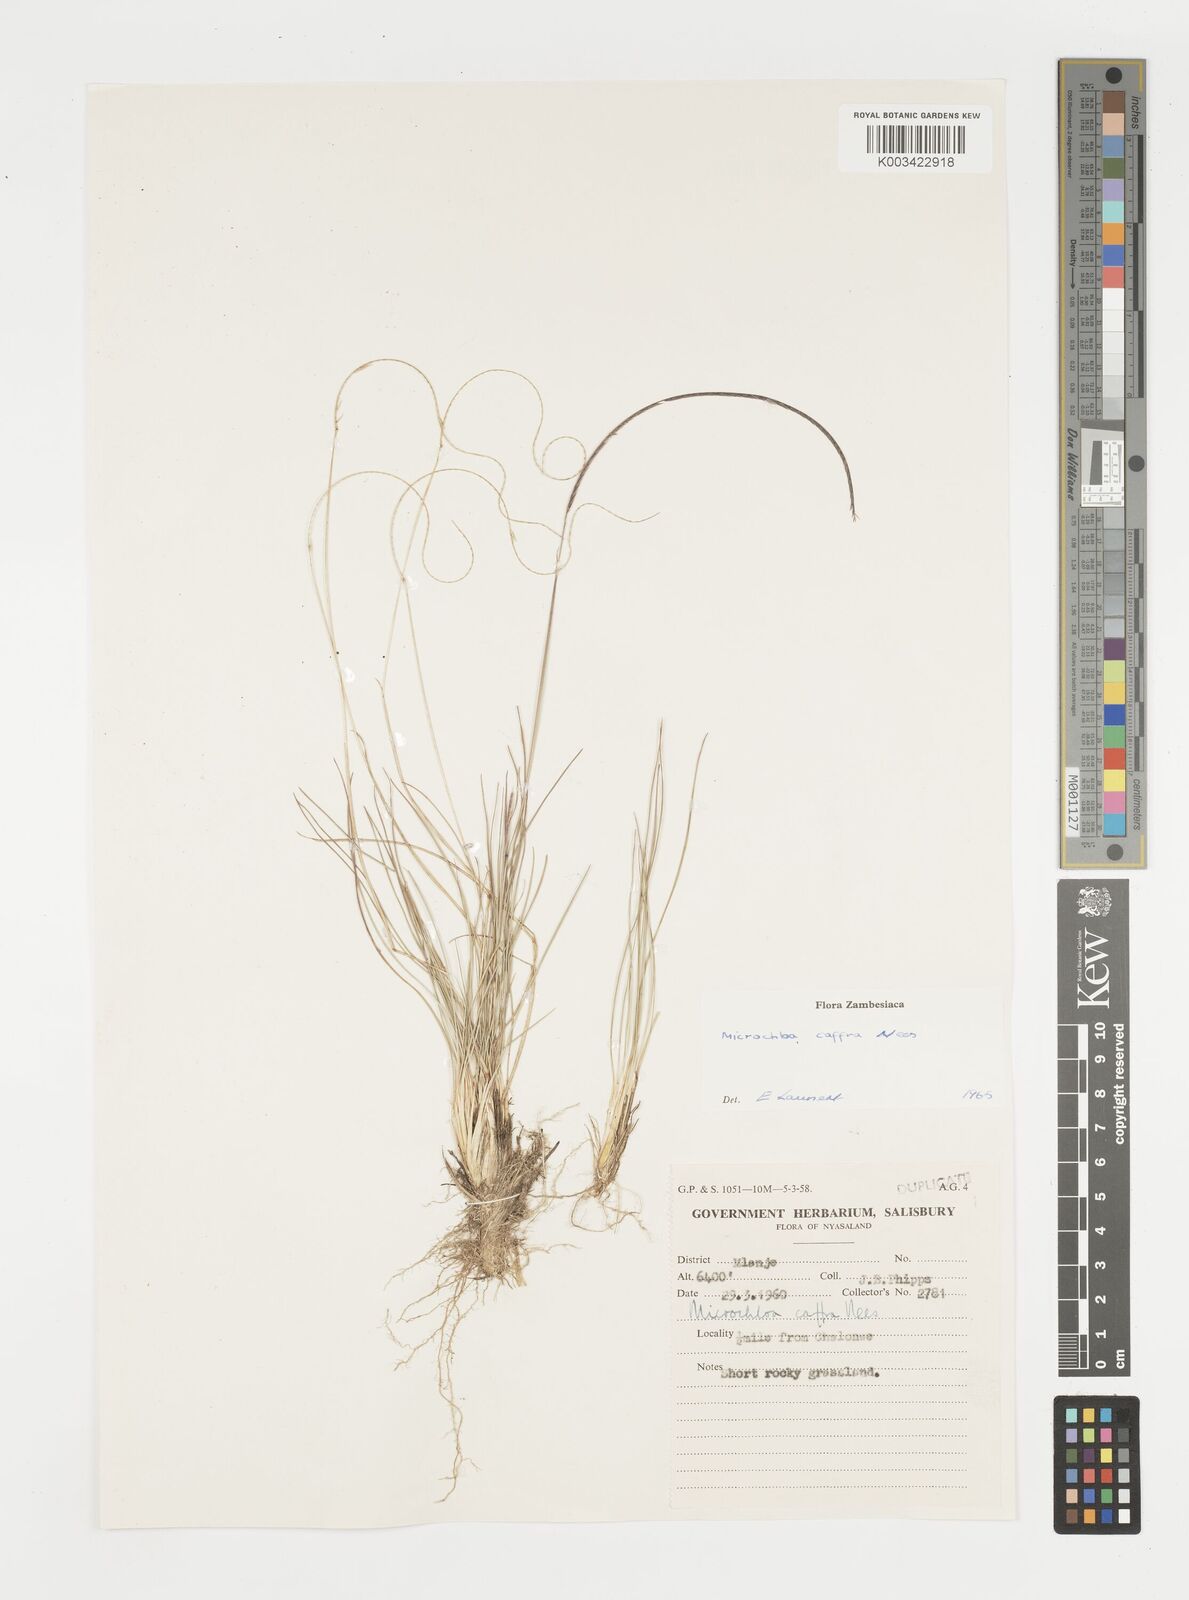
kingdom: Plantae
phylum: Tracheophyta
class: Liliopsida
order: Poales
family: Poaceae
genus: Microchloa
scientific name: Microchloa caffra
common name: Pincushion grass
